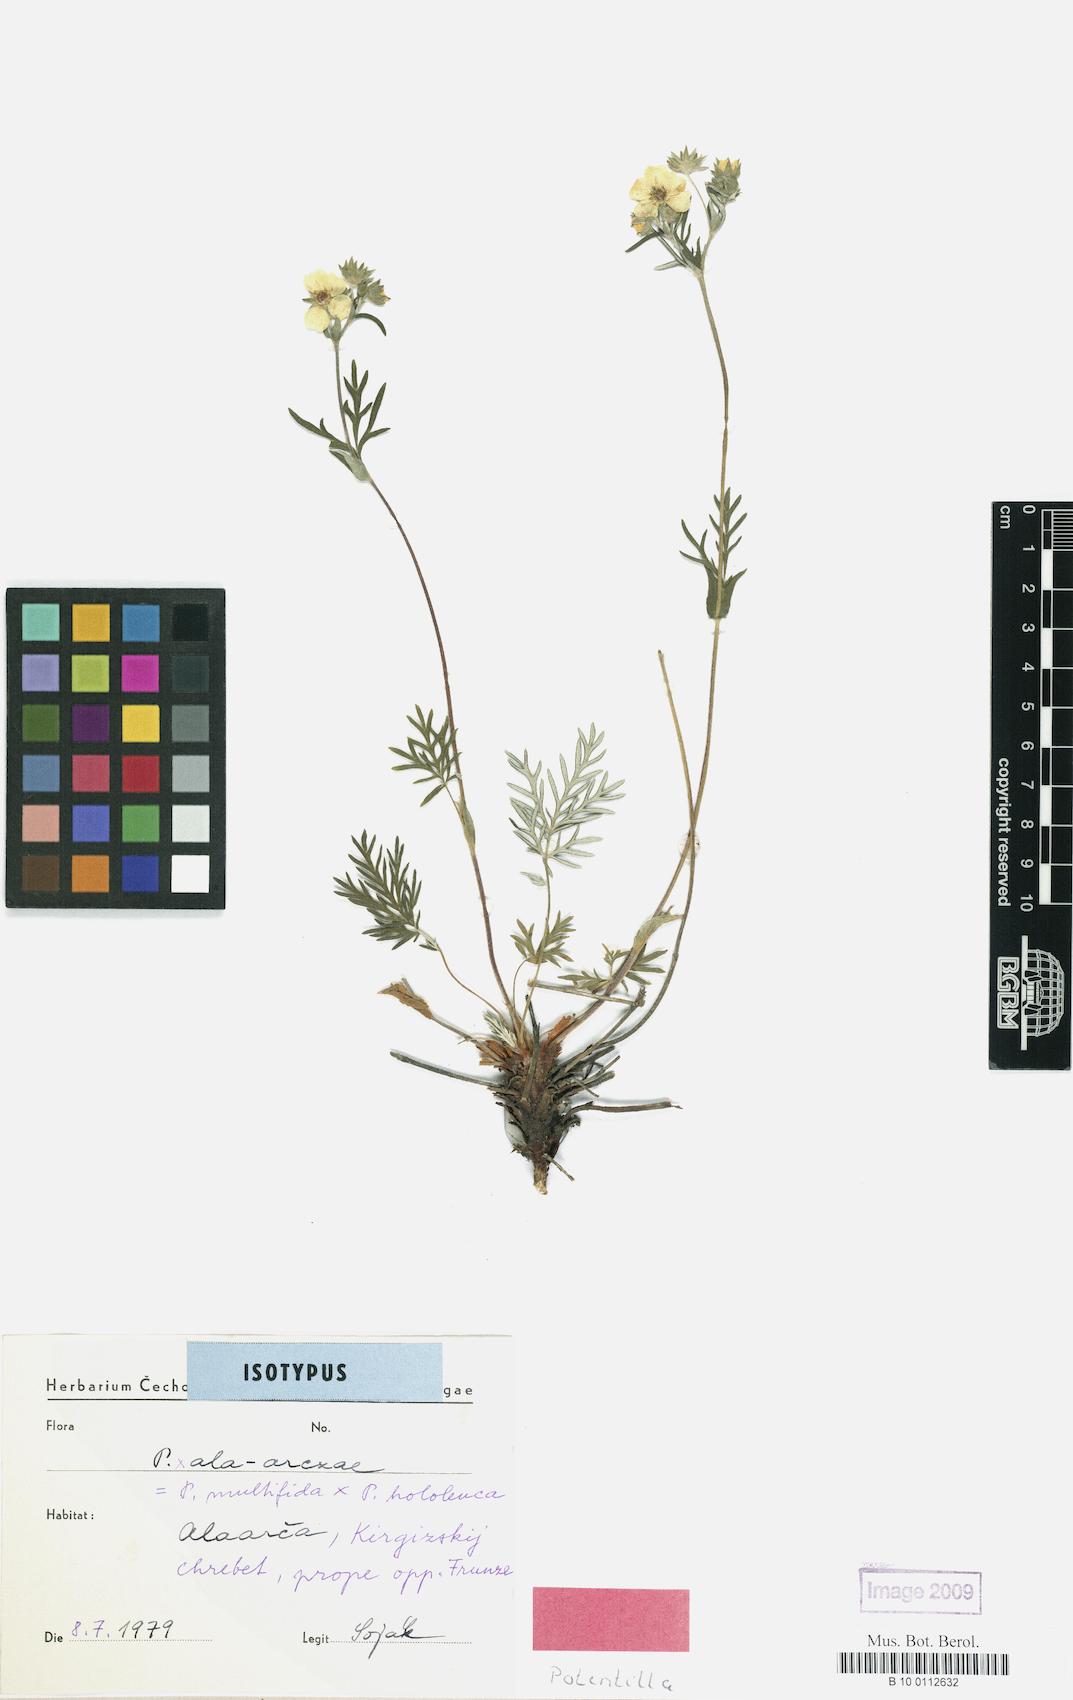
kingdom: Plantae
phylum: Tracheophyta
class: Magnoliopsida
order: Rosales
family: Rosaceae
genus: Potentilla
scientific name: Potentilla ala-arczae
